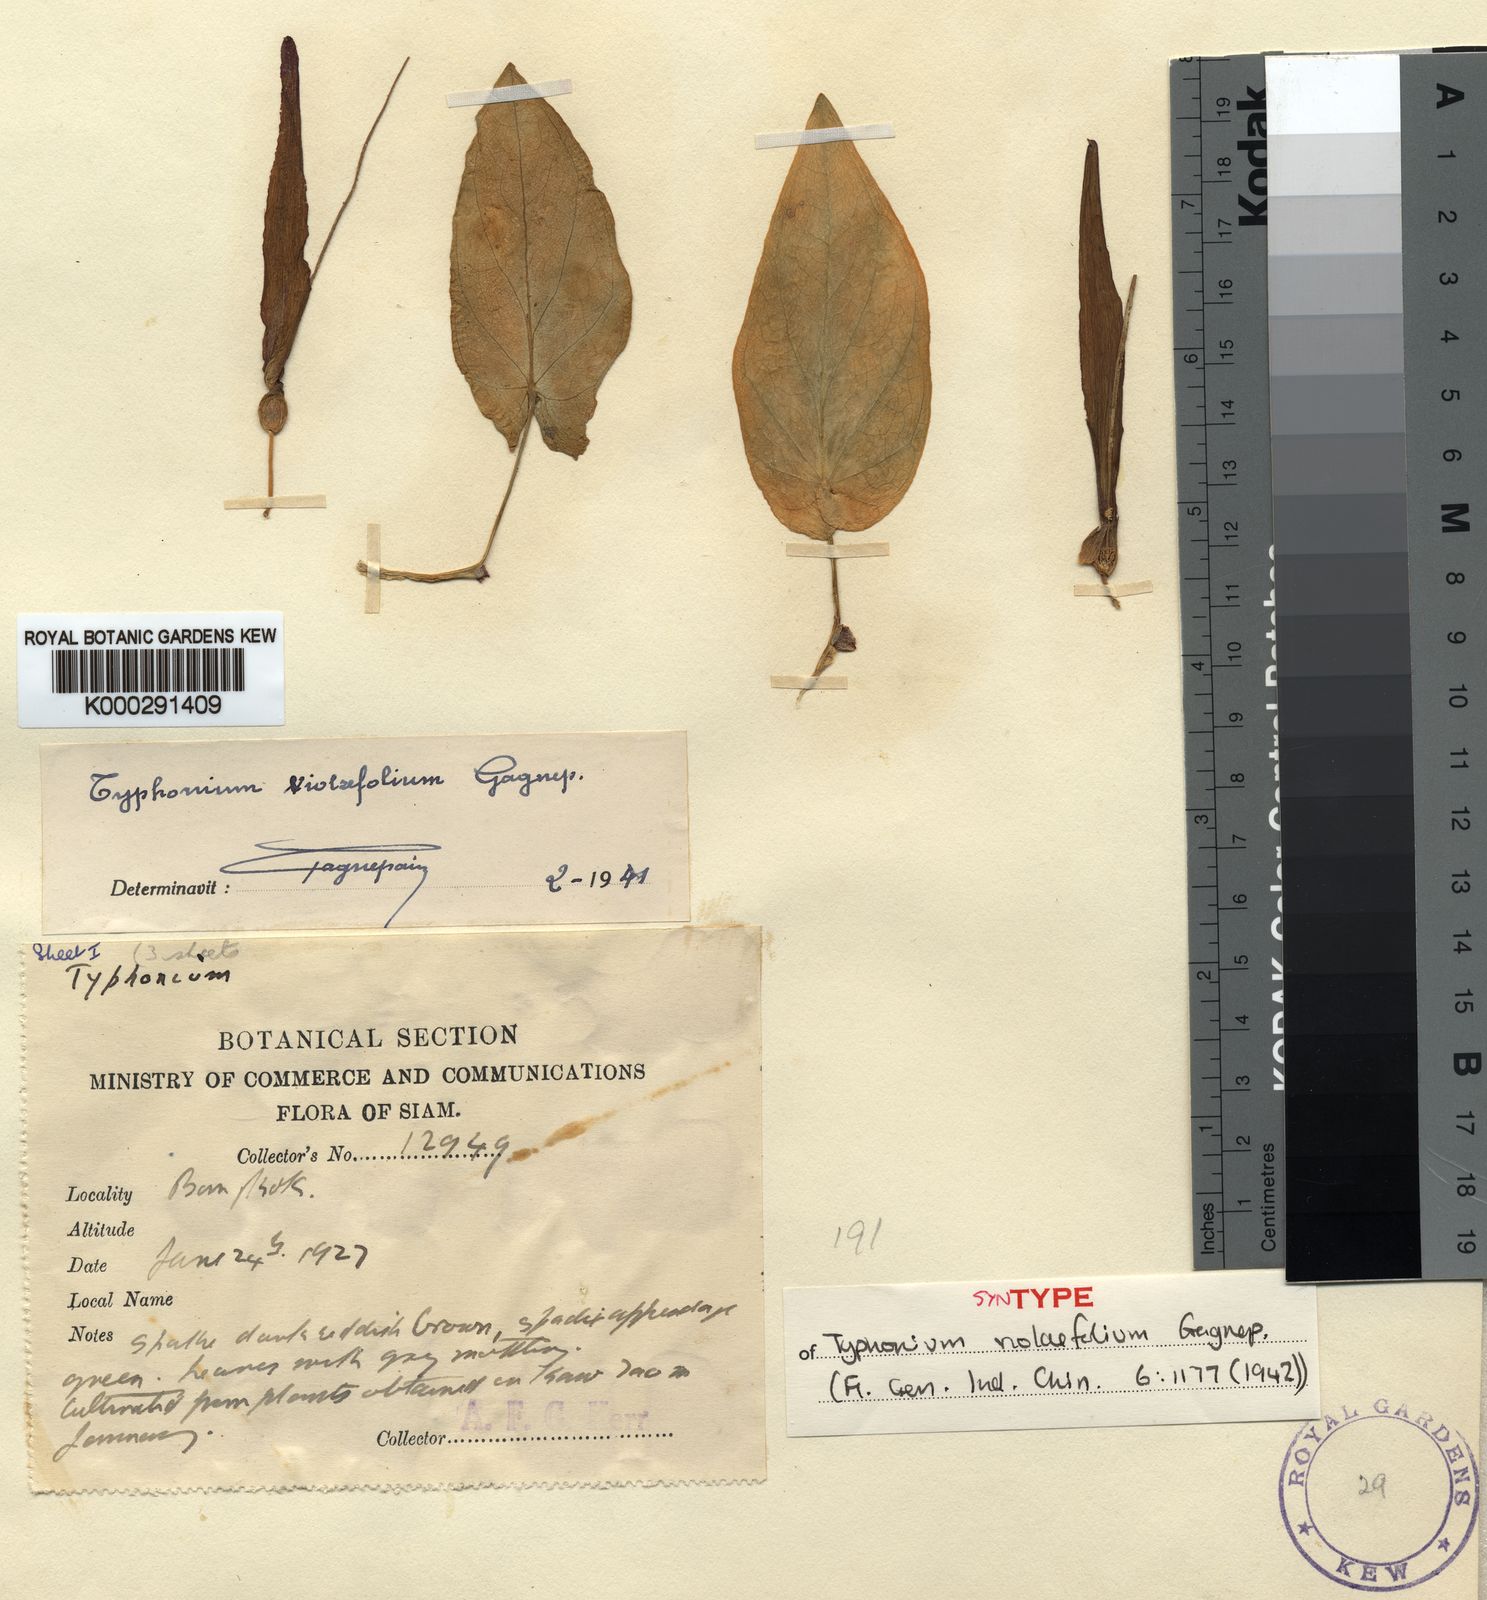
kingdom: Plantae
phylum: Tracheophyta
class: Liliopsida
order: Alismatales
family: Araceae
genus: Typhonium
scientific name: Typhonium violifolium
